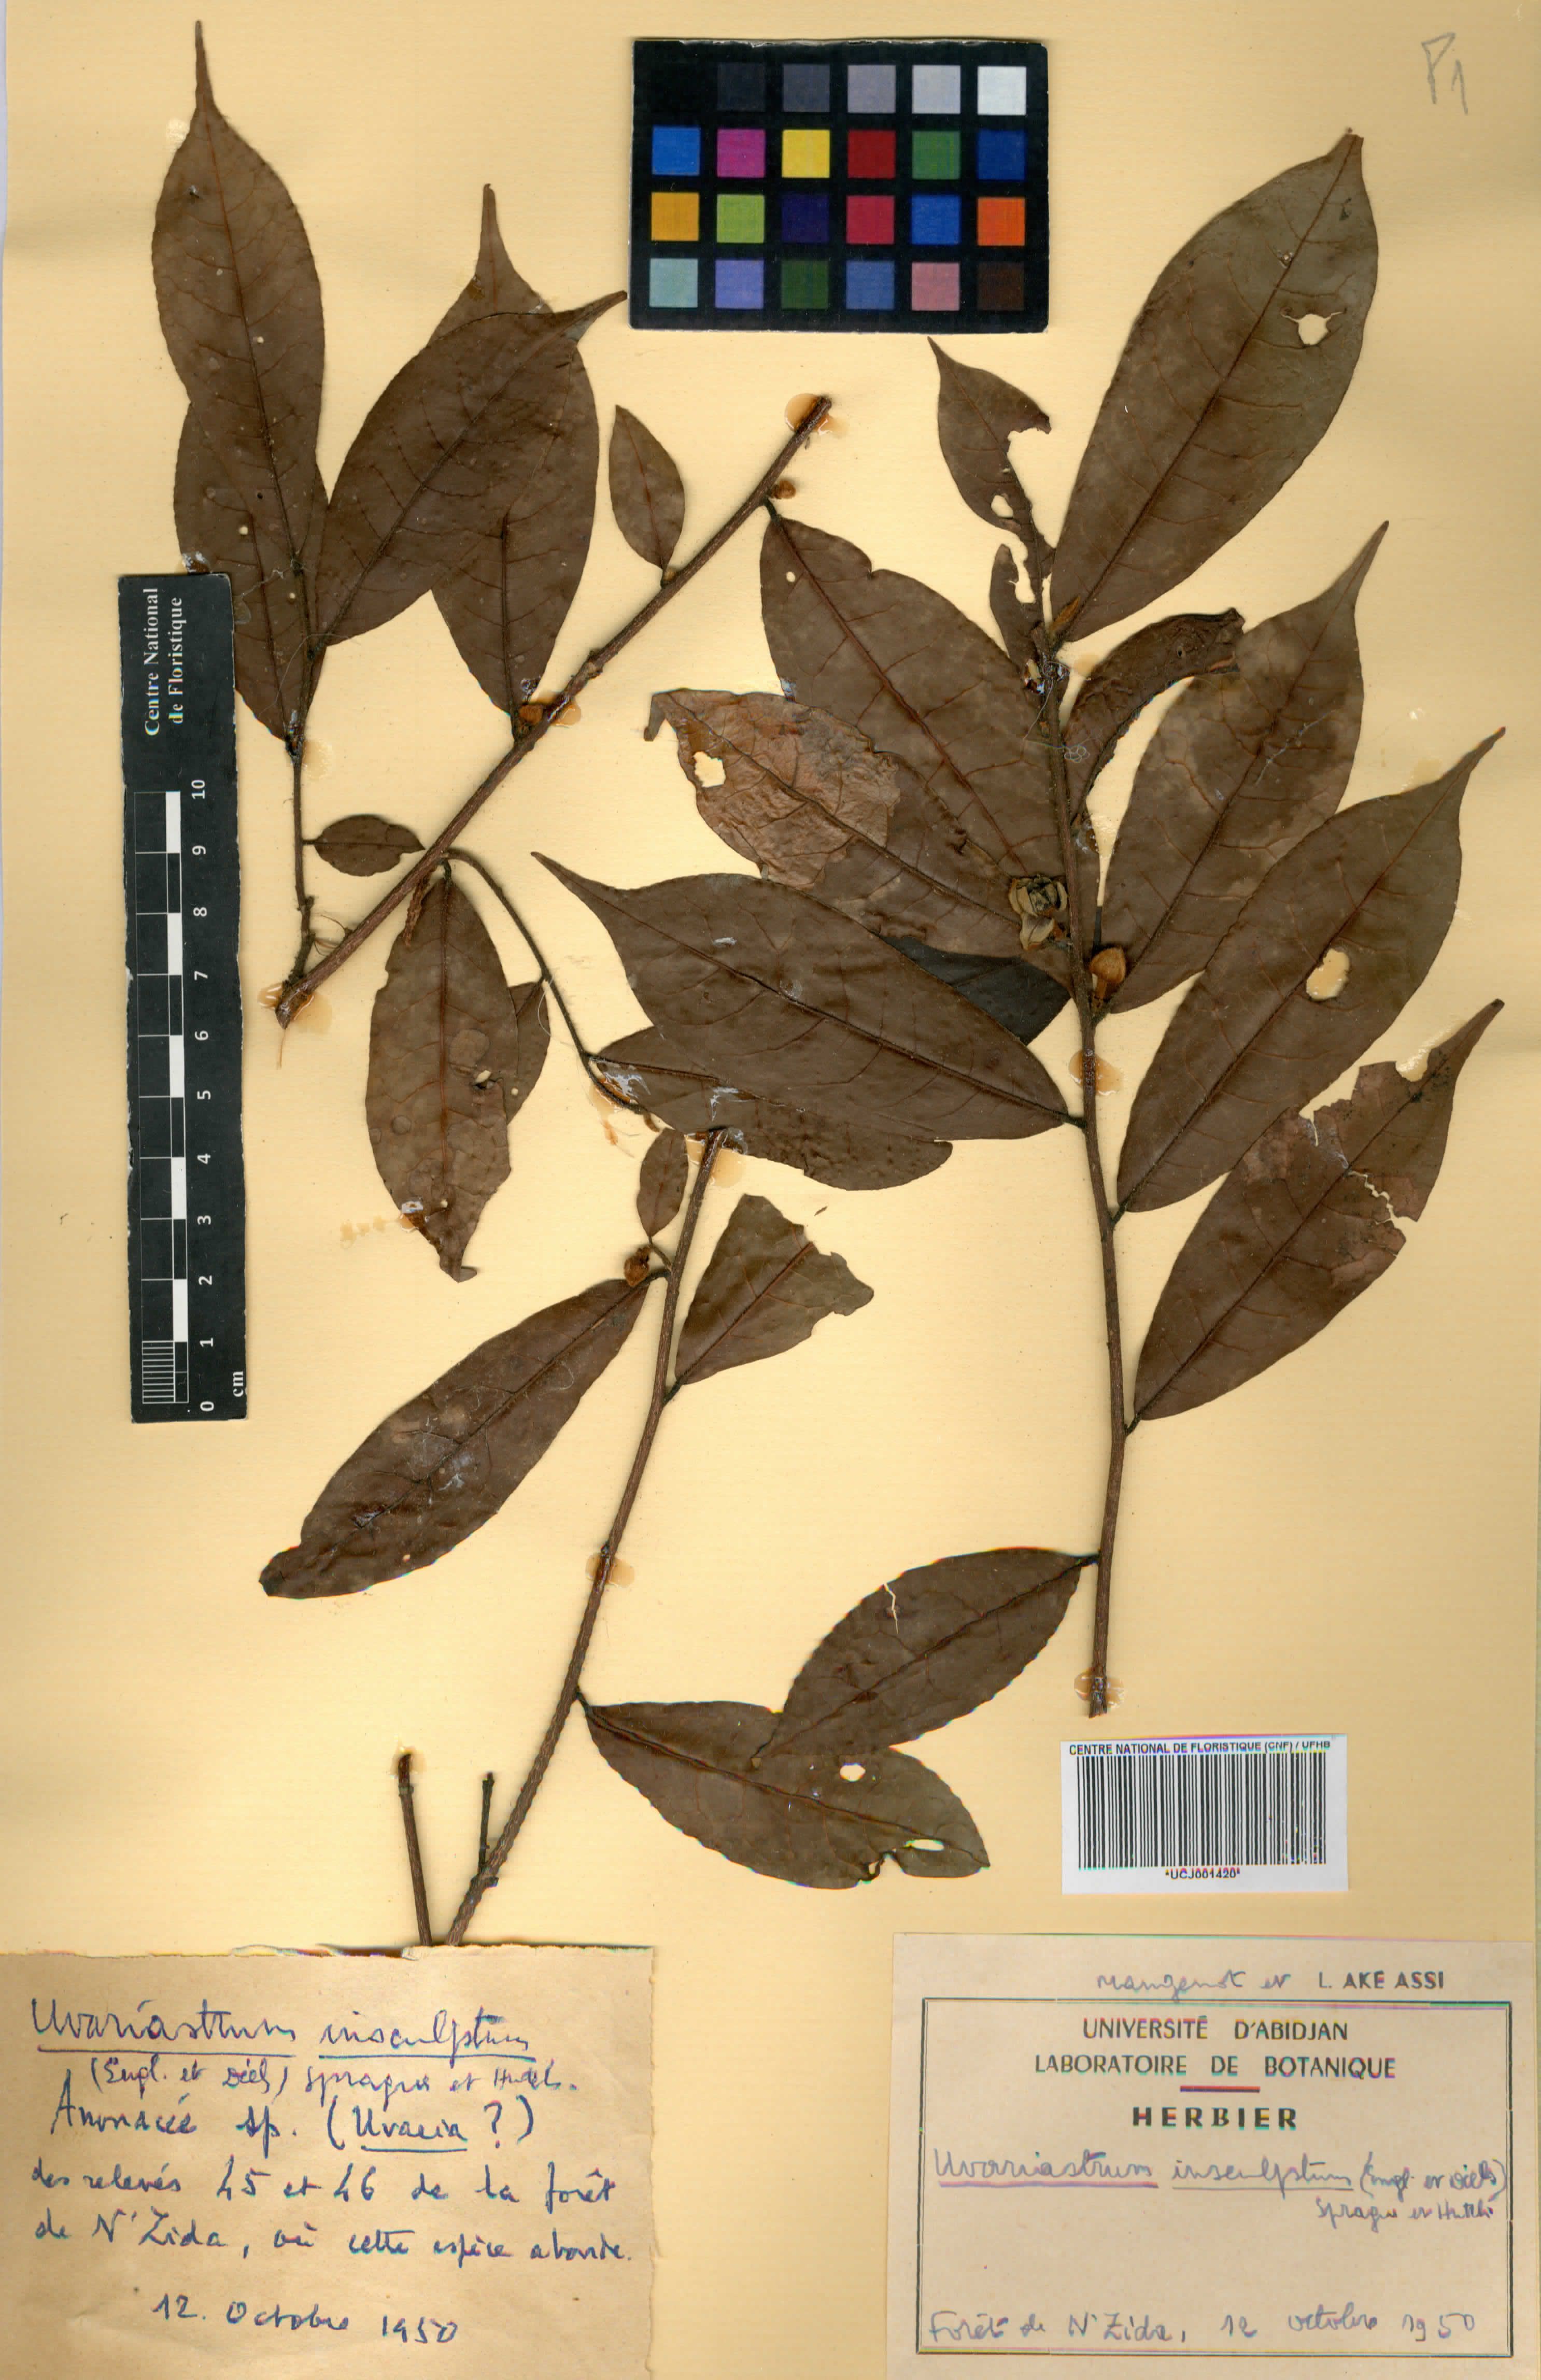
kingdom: Plantae
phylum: Tracheophyta
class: Magnoliopsida
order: Magnoliales
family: Annonaceae
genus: Uvariastrum
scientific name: Uvariastrum pierreanum
